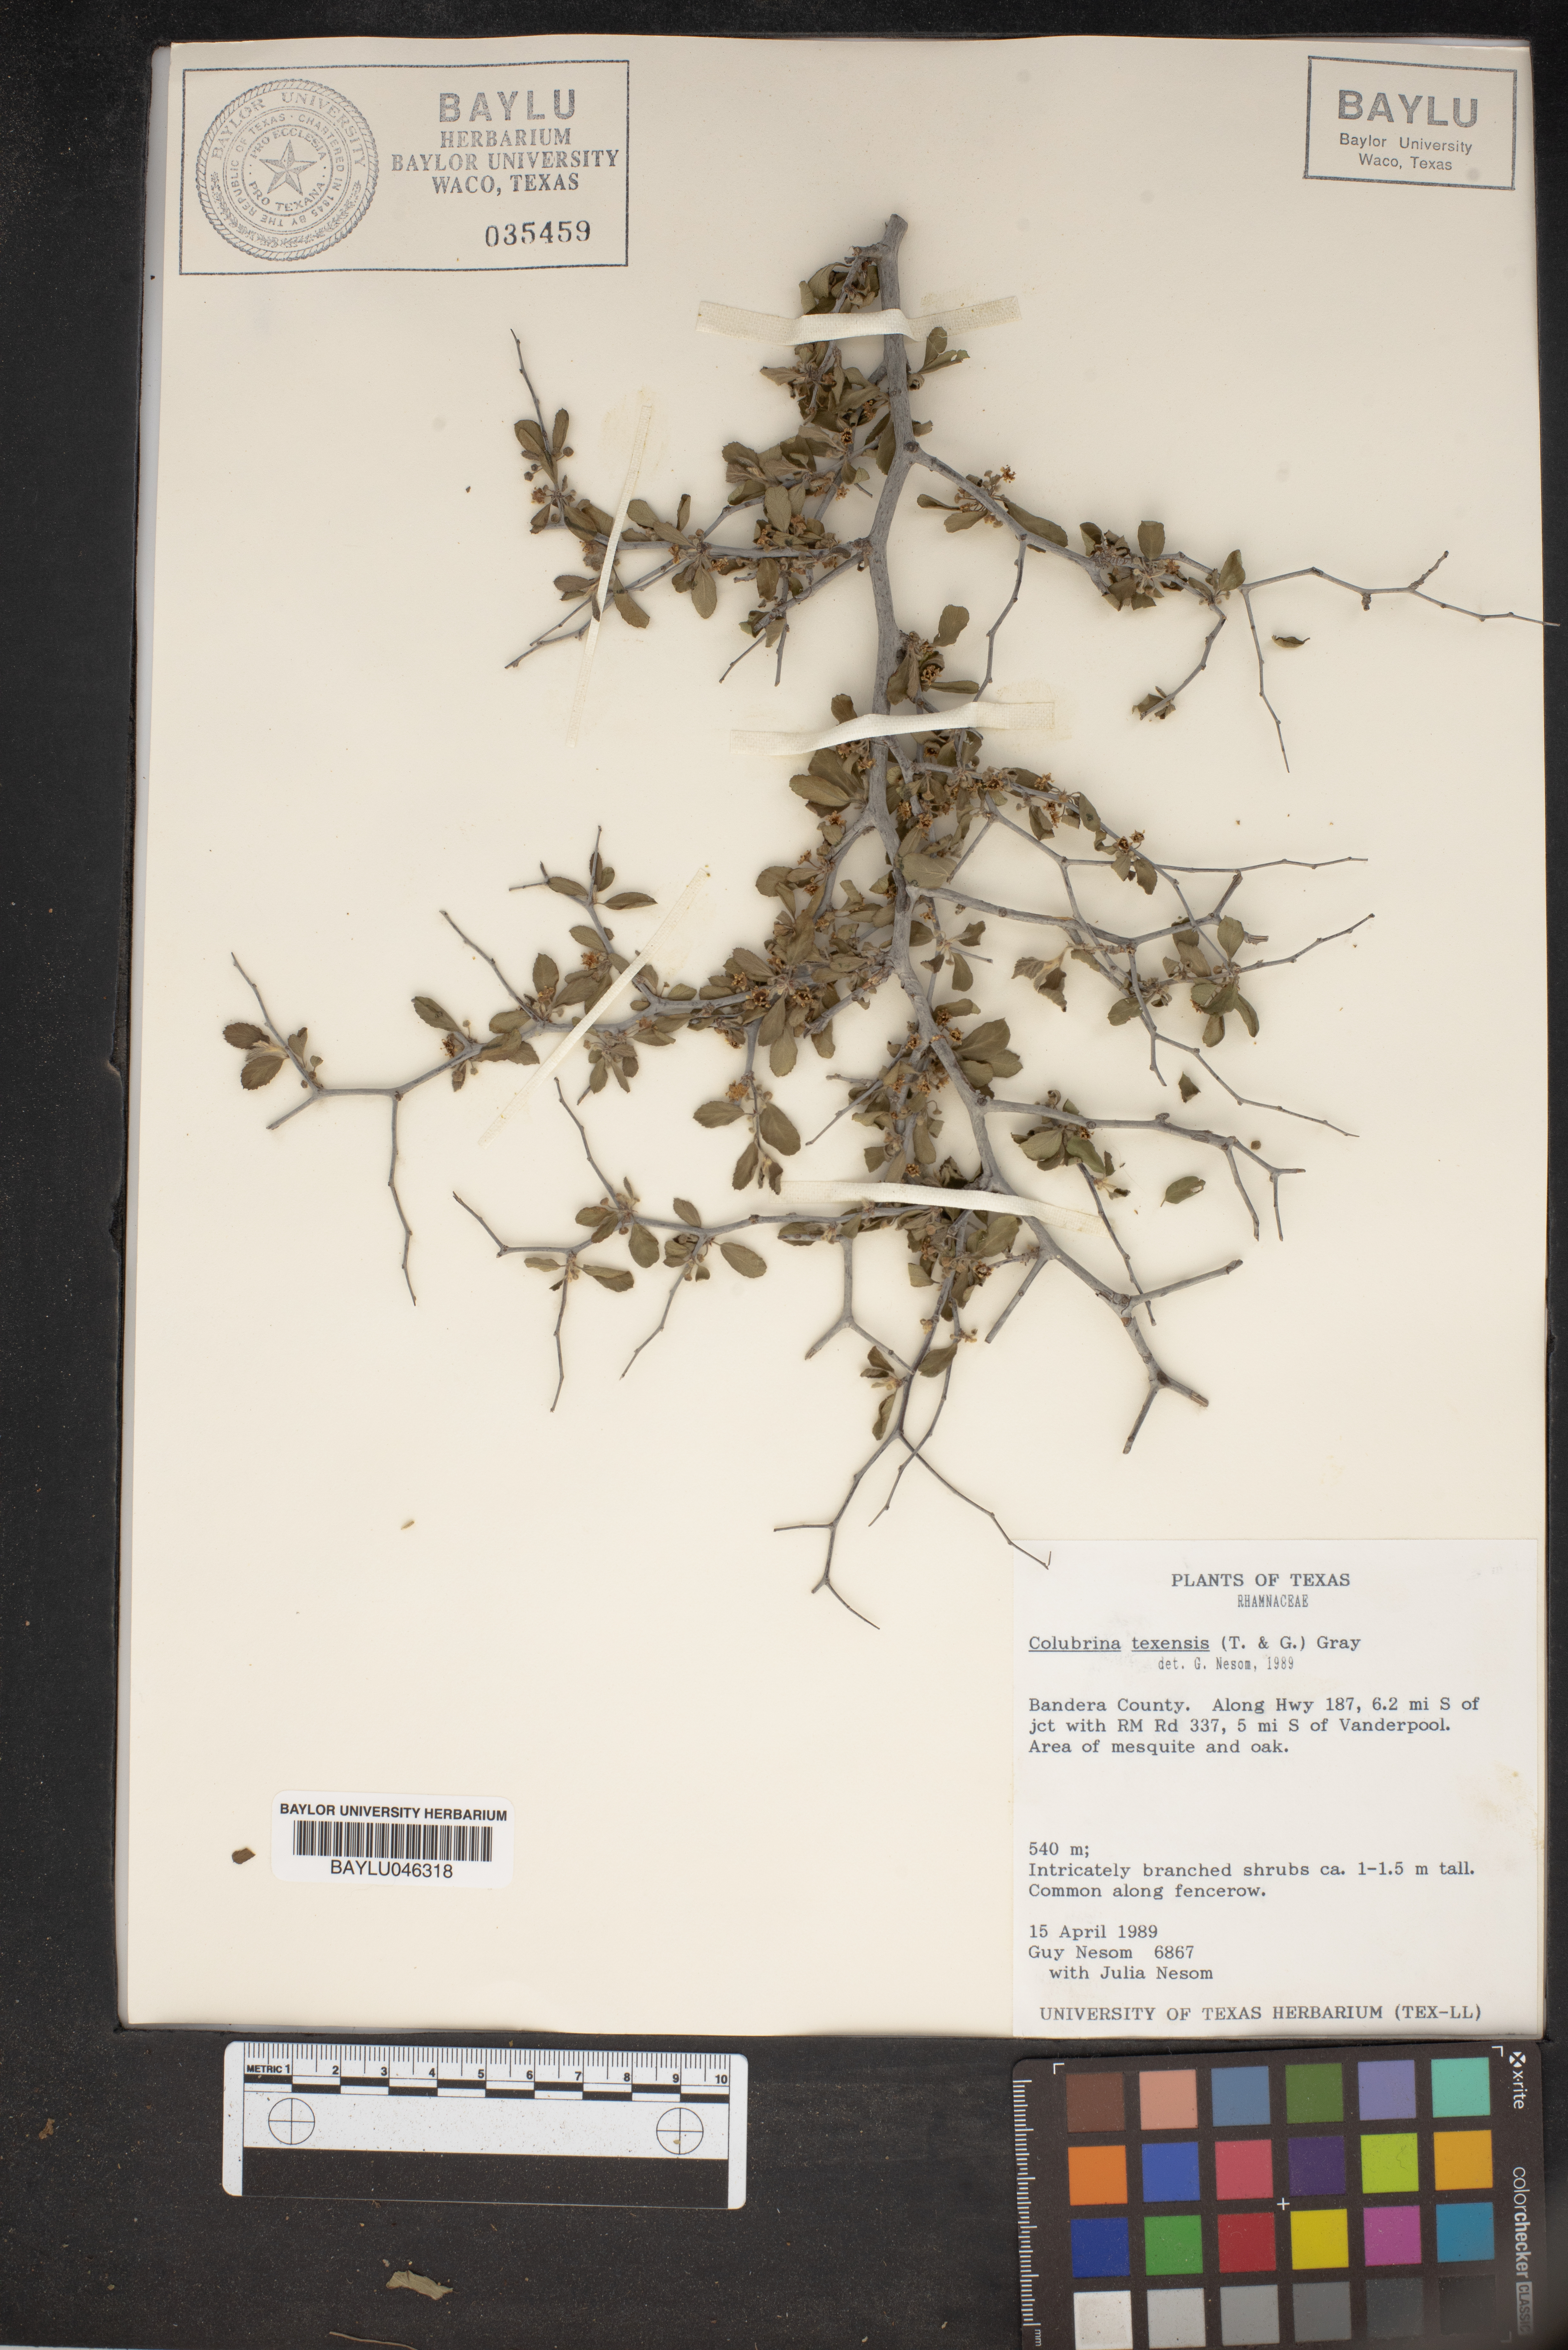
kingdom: Plantae
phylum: Tracheophyta
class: Magnoliopsida
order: Rosales
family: Rhamnaceae
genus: Colubrina
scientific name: Colubrina texensis
